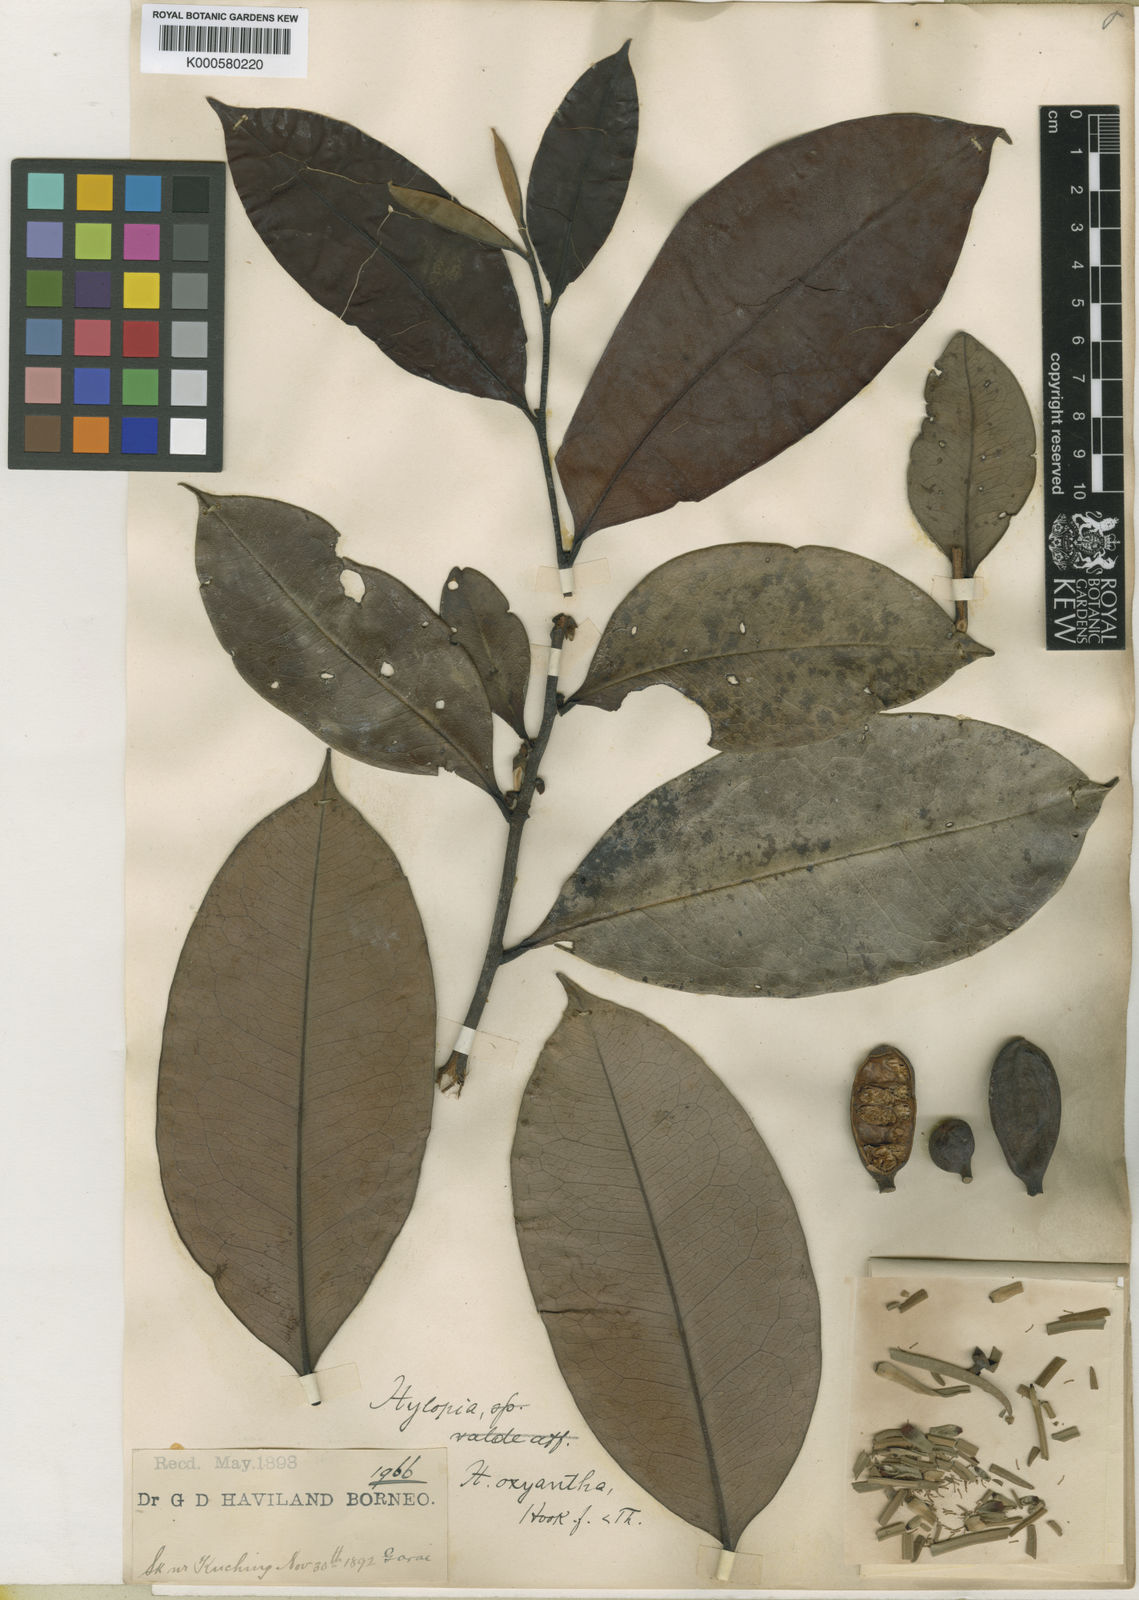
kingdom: Plantae
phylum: Tracheophyta
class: Magnoliopsida
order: Magnoliales
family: Annonaceae
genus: Xylopia
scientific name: Xylopia kuchingensis
